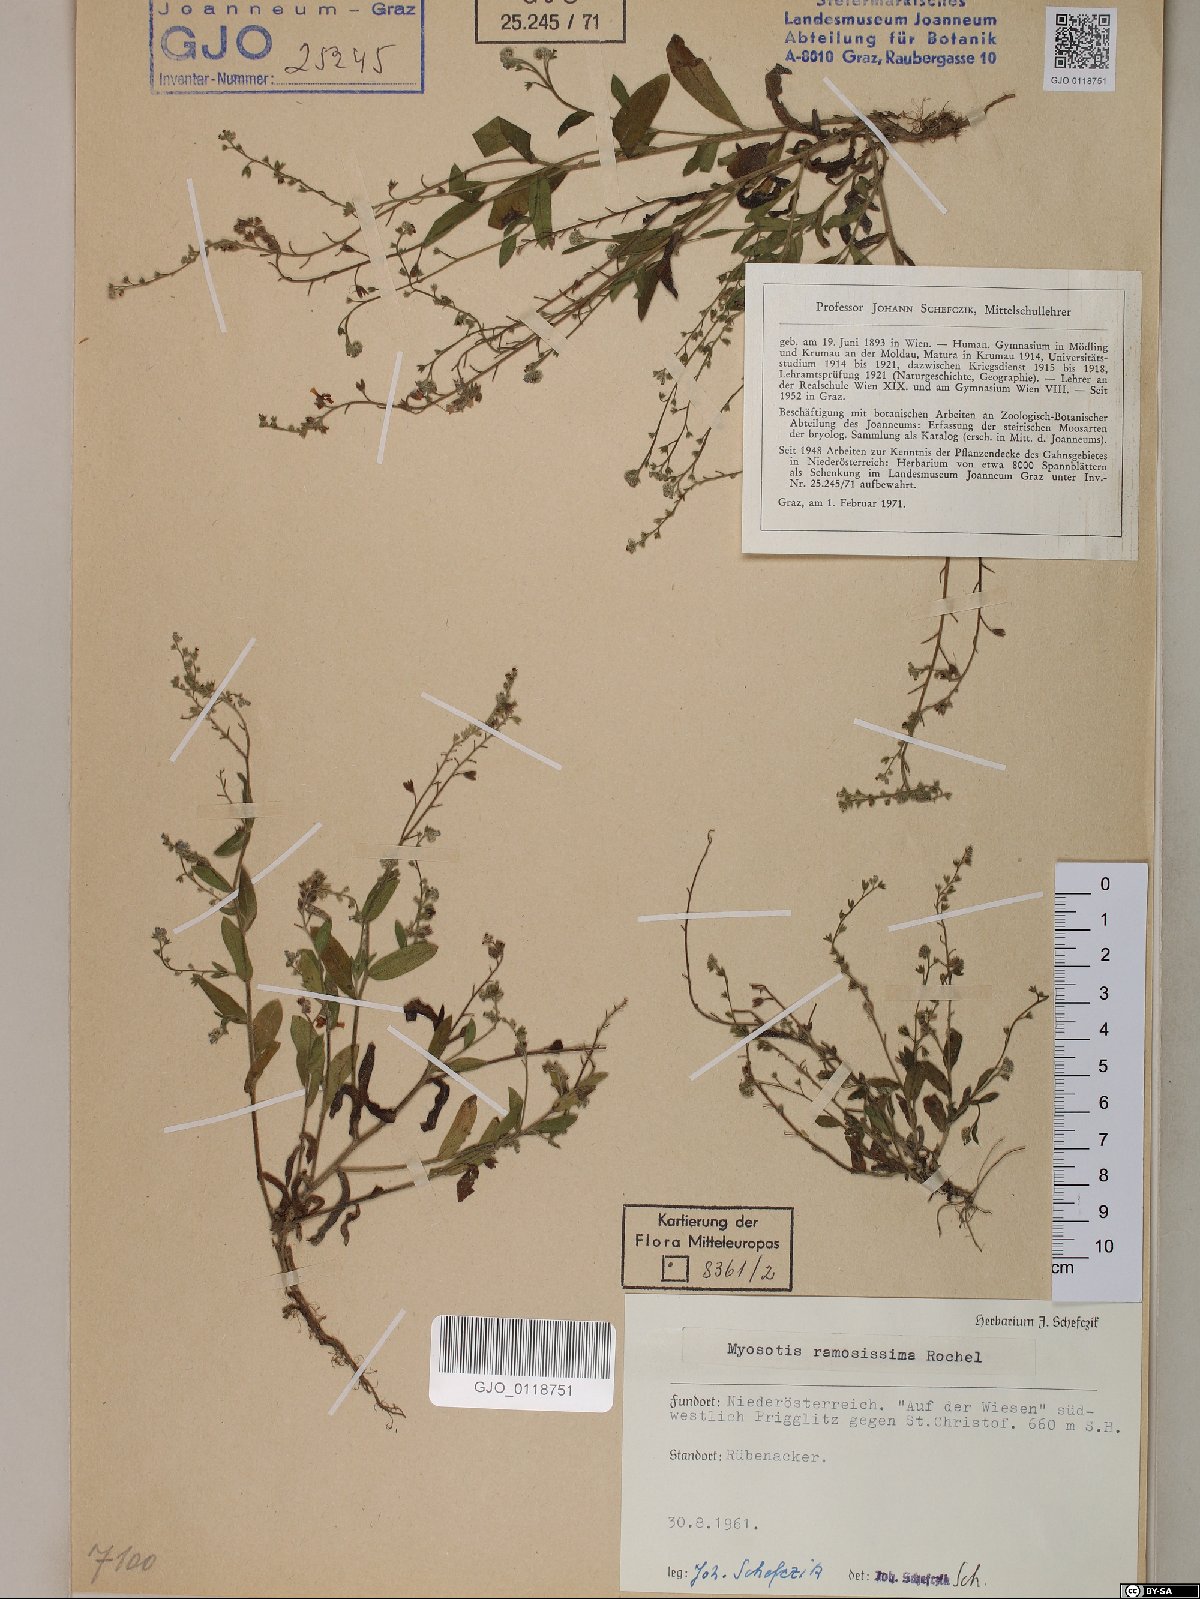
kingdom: Plantae
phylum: Tracheophyta
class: Magnoliopsida
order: Boraginales
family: Boraginaceae
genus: Myosotis
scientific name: Myosotis ramosissima
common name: Early forget-me-not
